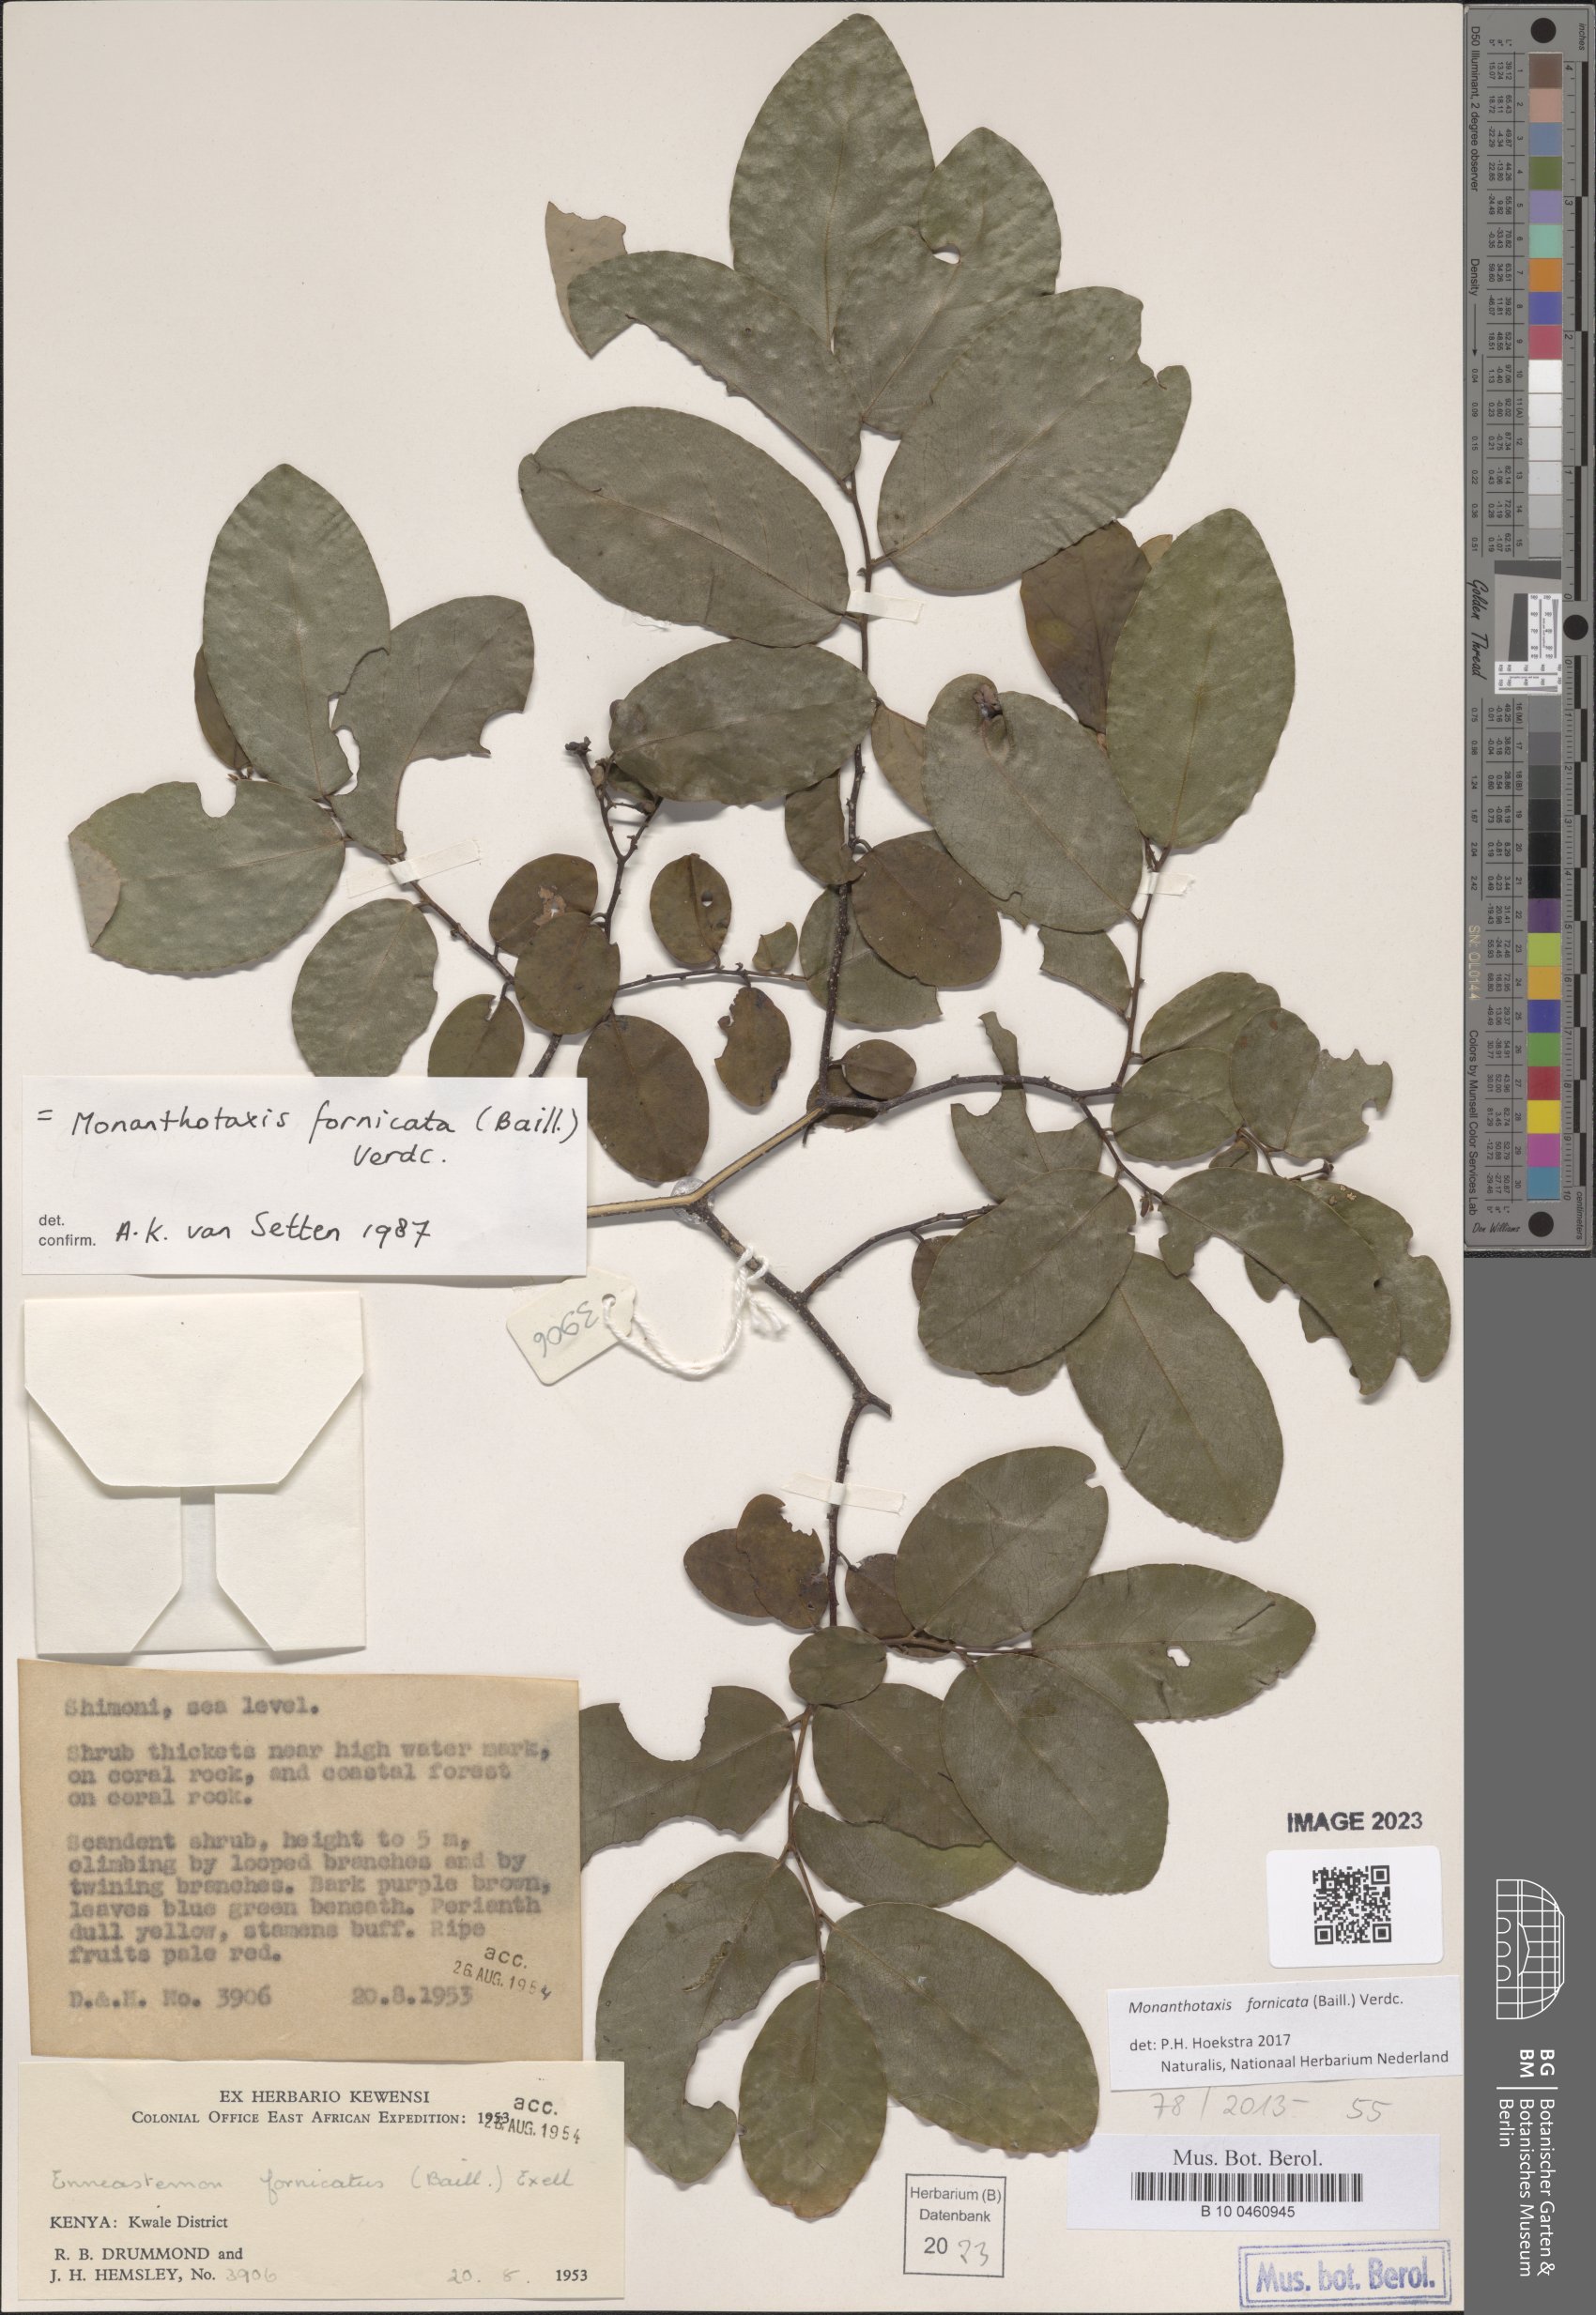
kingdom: Plantae
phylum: Tracheophyta
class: Magnoliopsida
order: Magnoliales
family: Annonaceae
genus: Monanthotaxis
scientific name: Monanthotaxis fornicata
